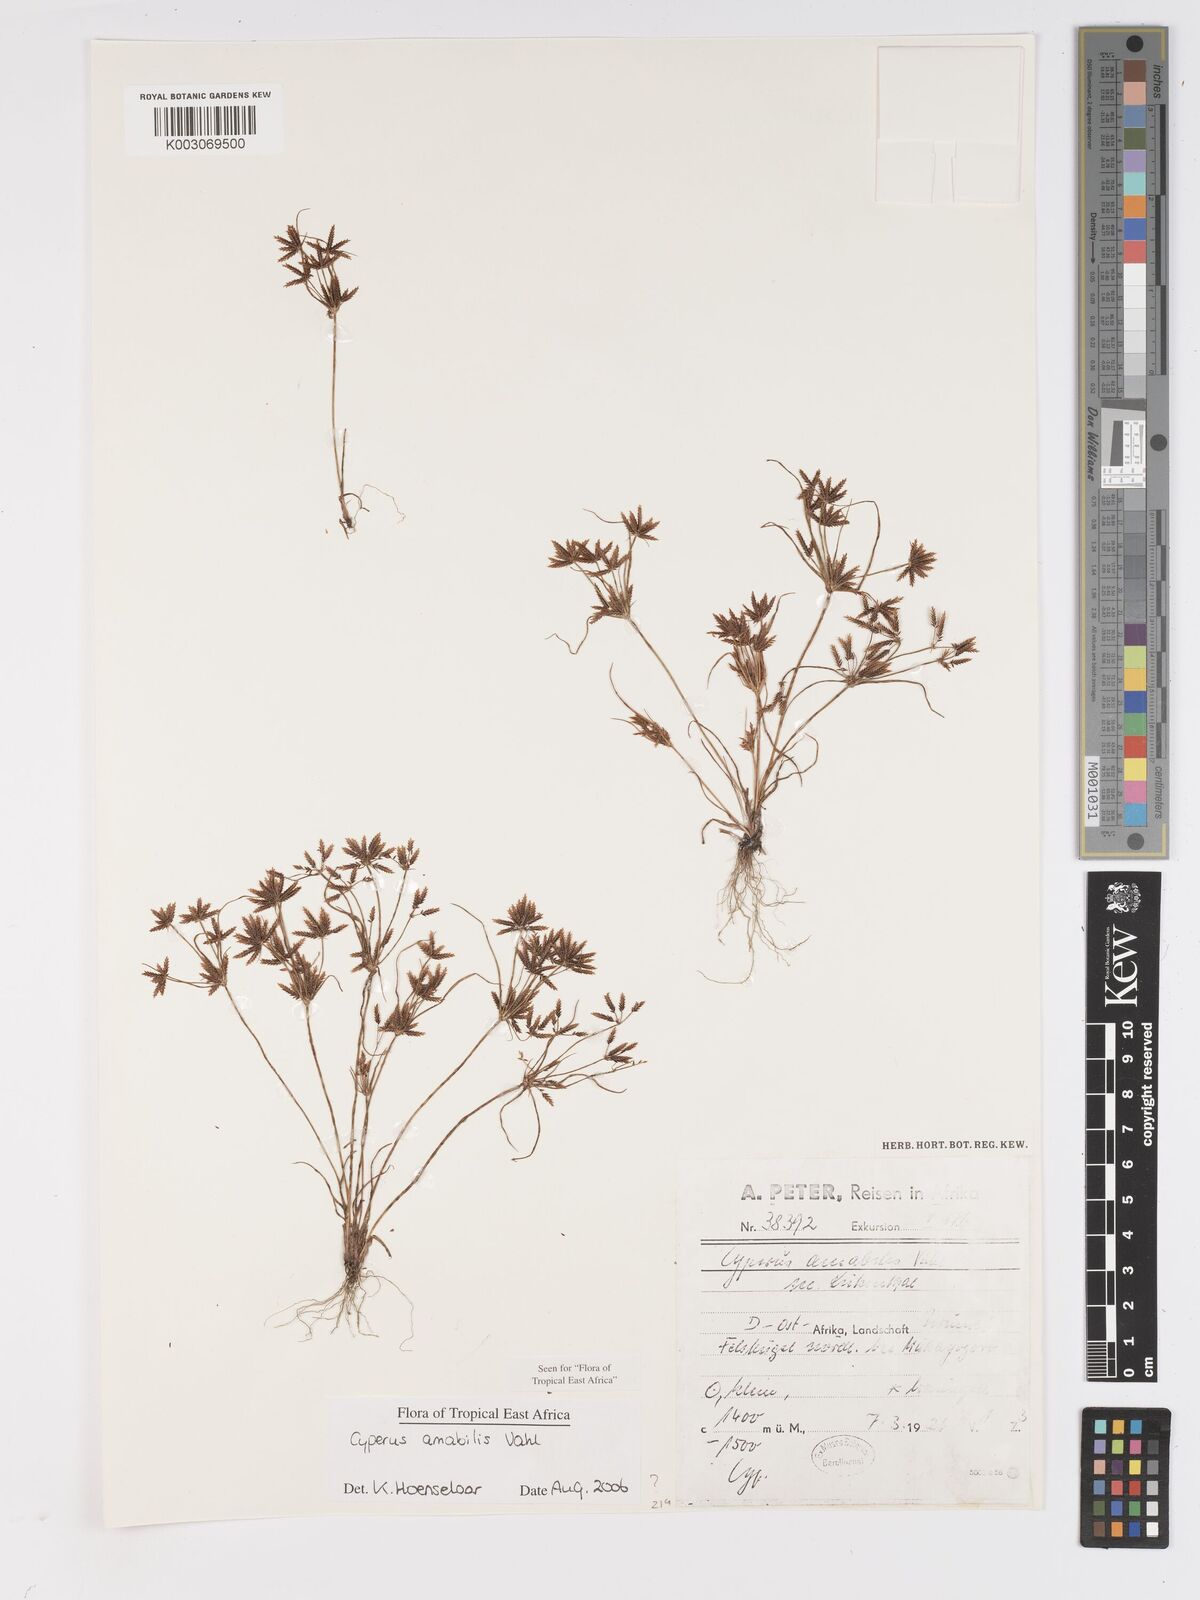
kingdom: Plantae
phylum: Tracheophyta
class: Liliopsida
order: Poales
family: Cyperaceae
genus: Cyperus
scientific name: Cyperus amabilis
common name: Foothill flat sedge
